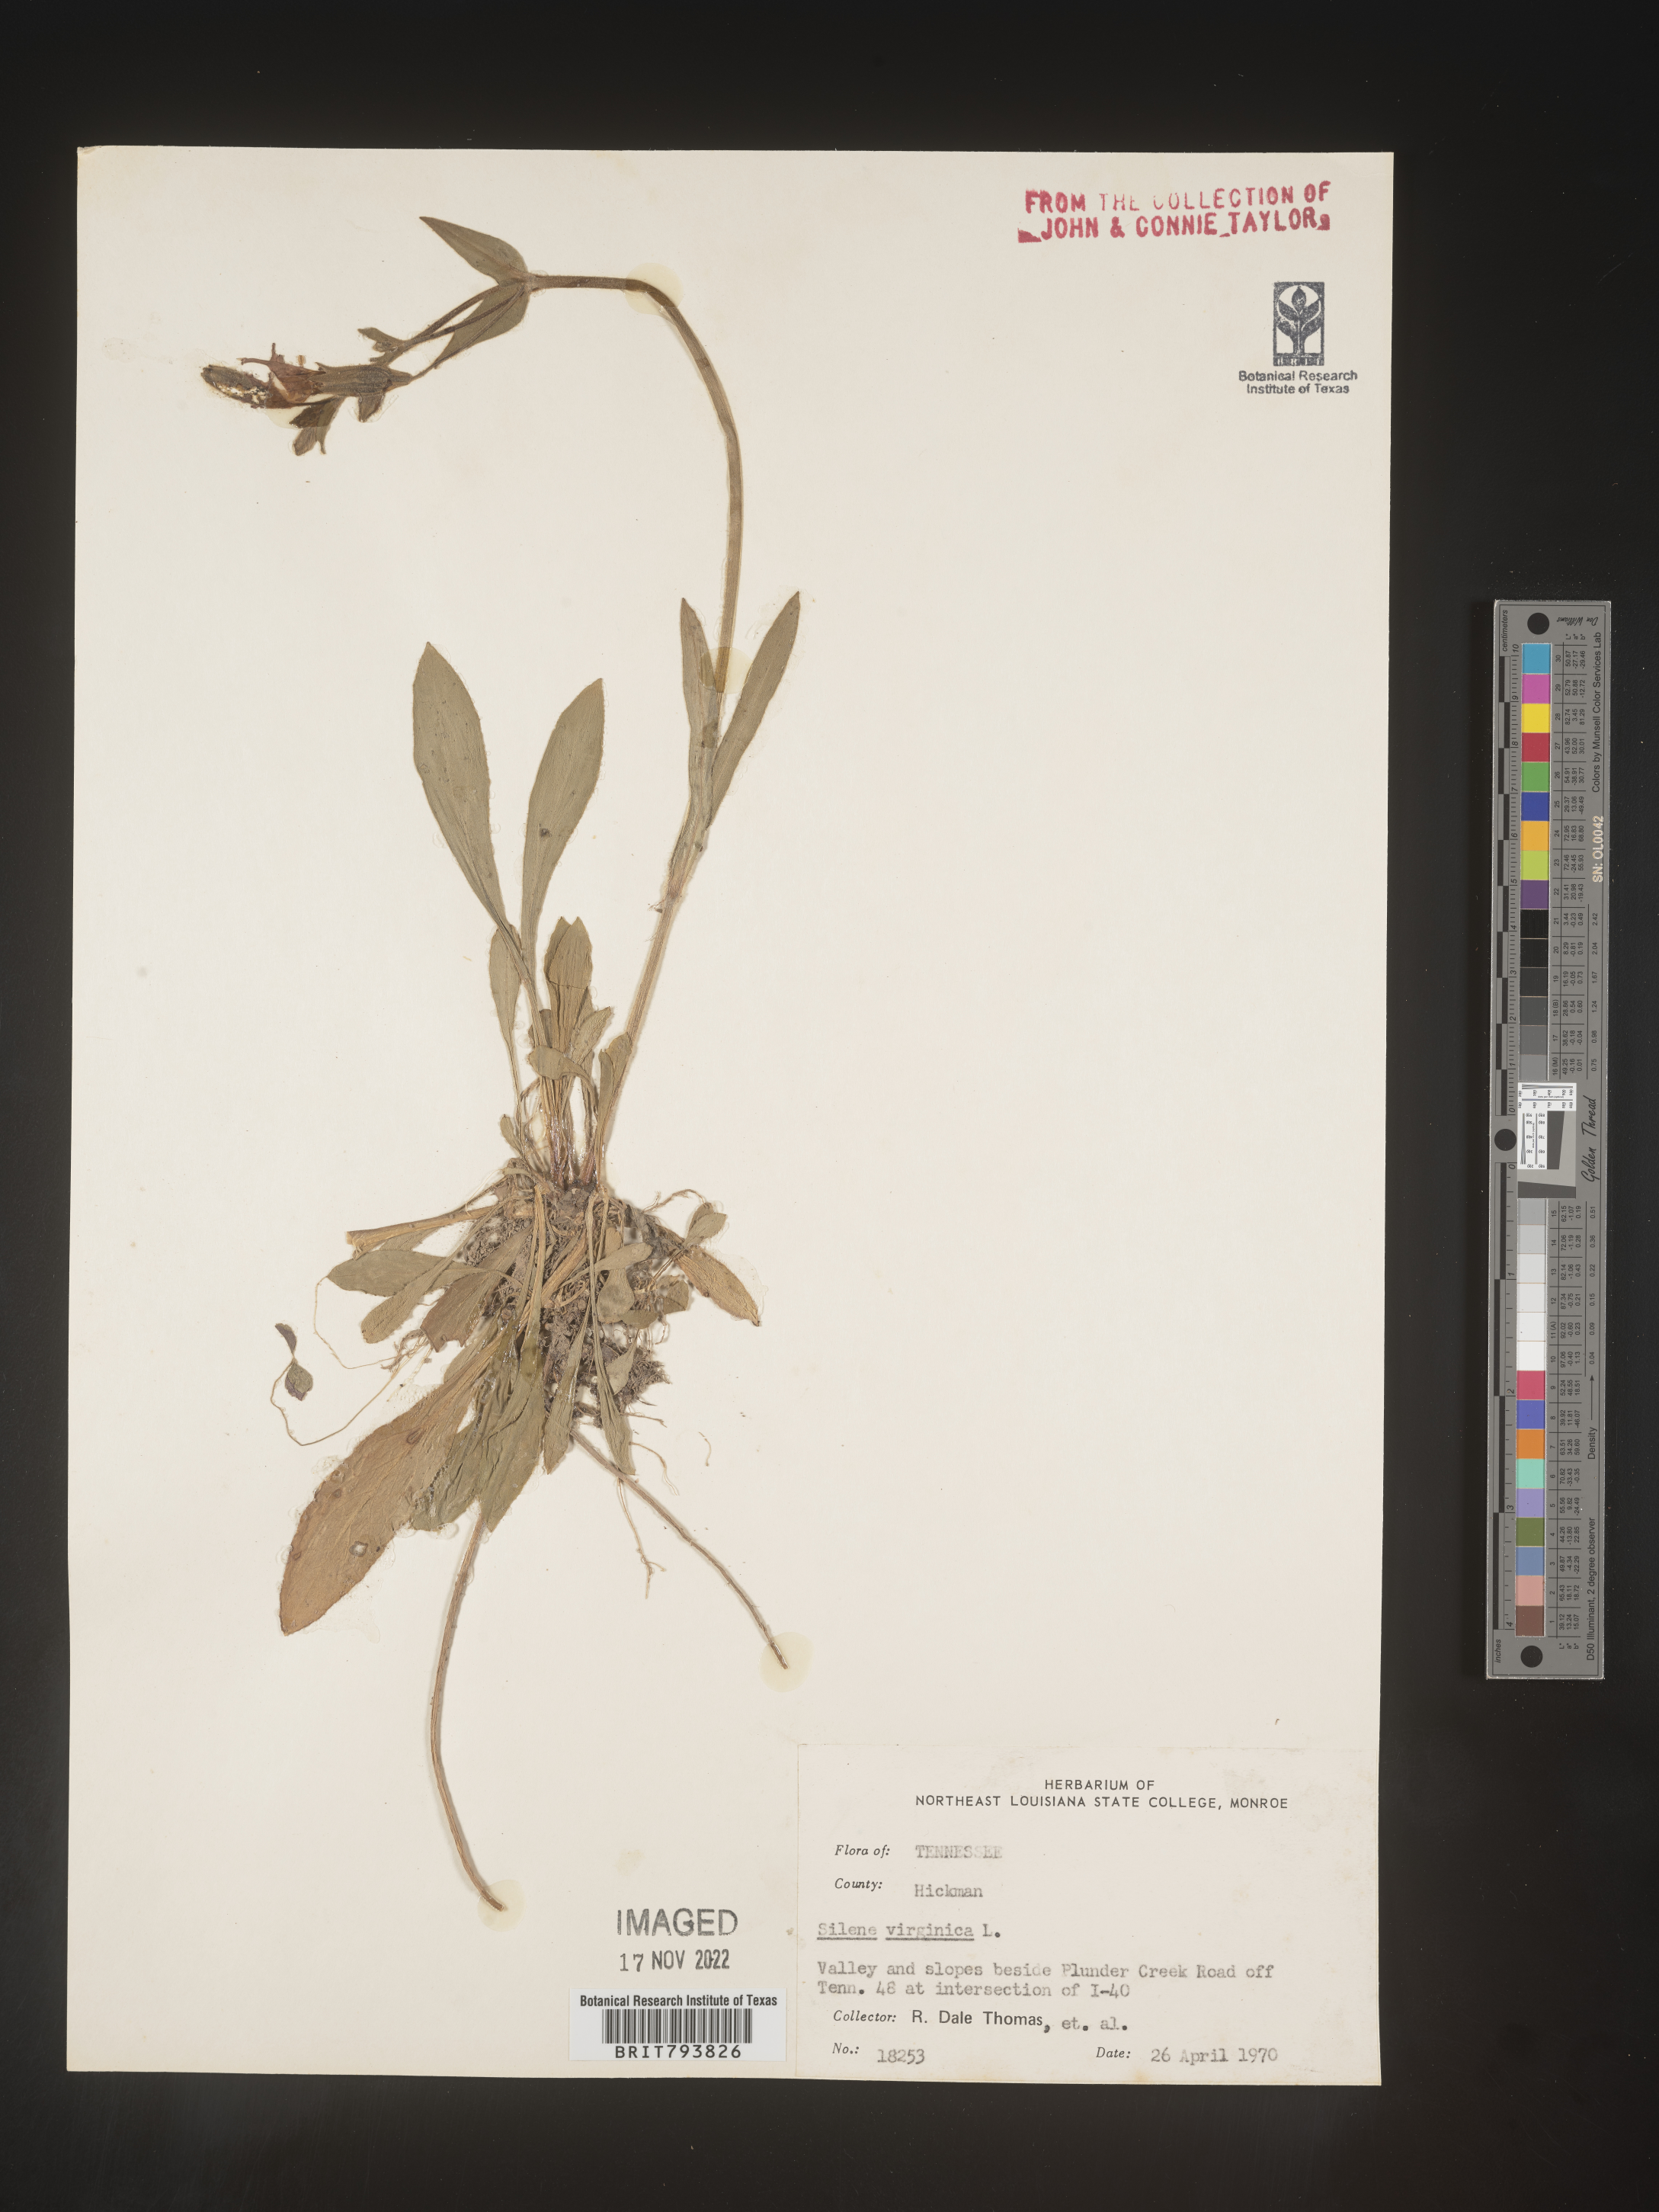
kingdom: Plantae
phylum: Tracheophyta
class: Magnoliopsida
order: Caryophyllales
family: Caryophyllaceae
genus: Silene
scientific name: Silene virginica
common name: Fire-pink
